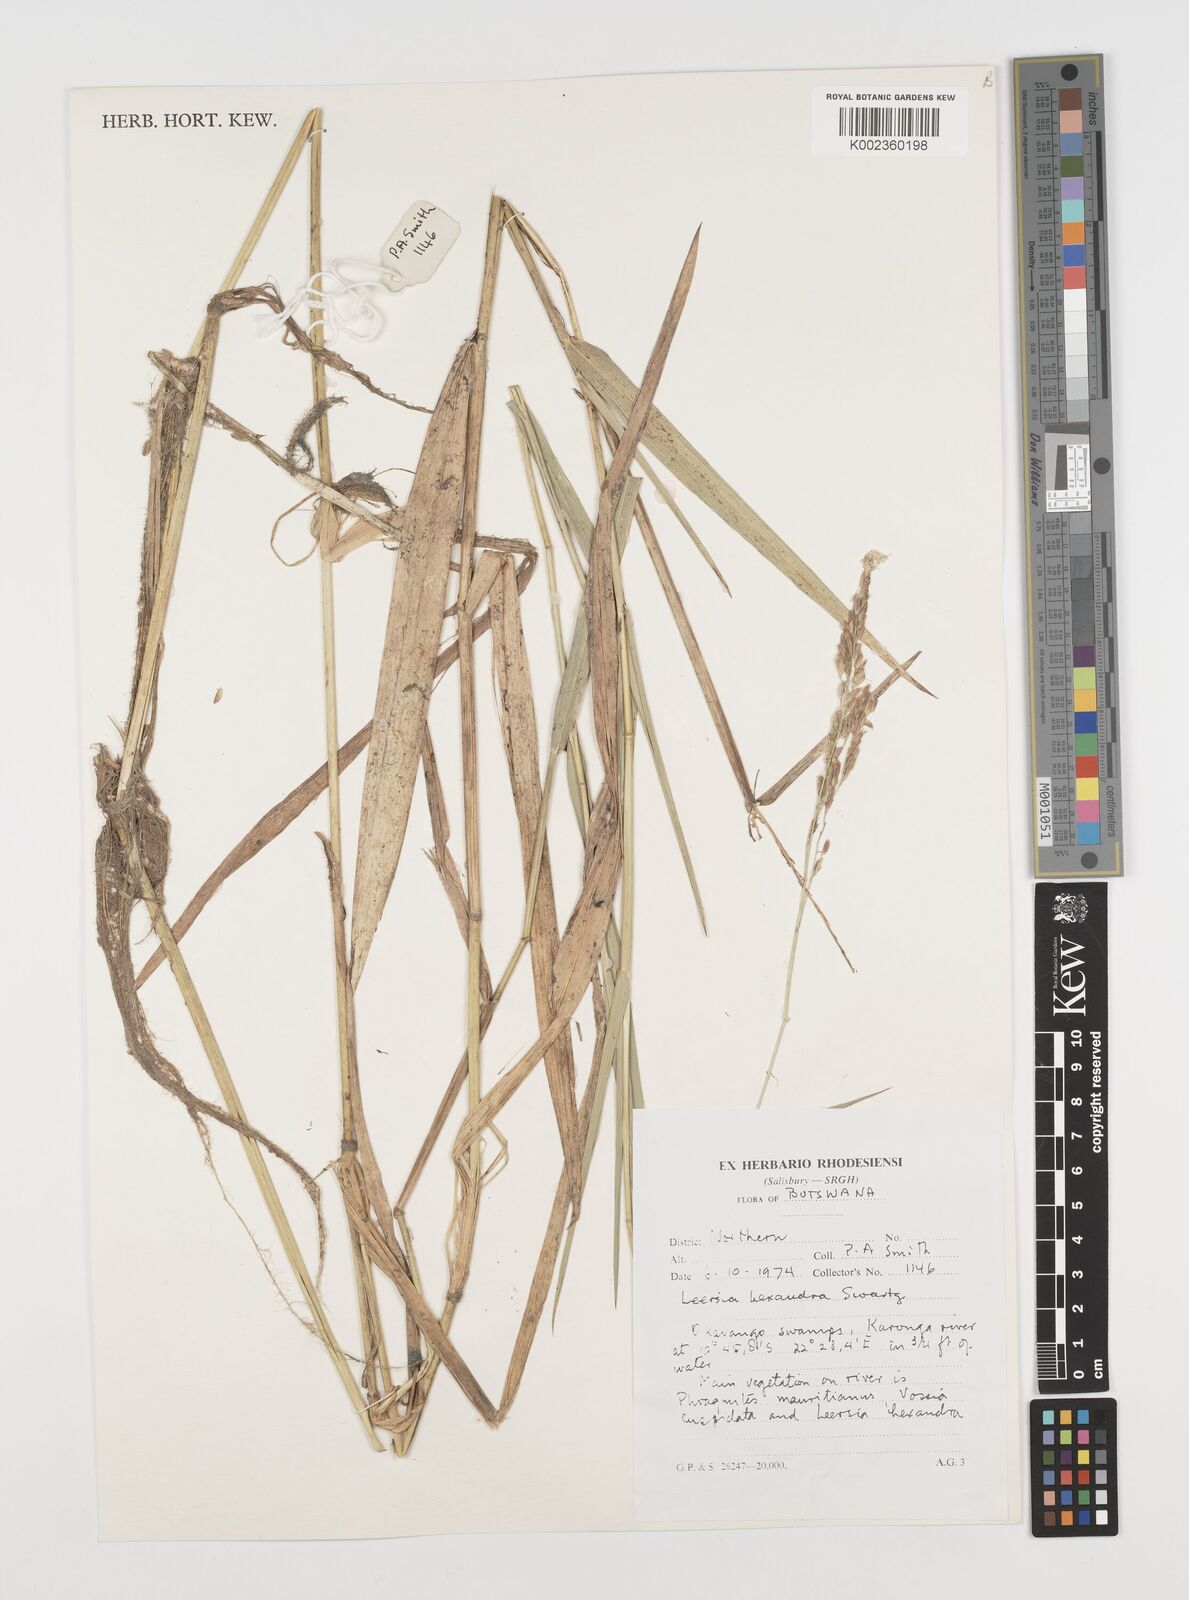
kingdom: Plantae
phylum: Tracheophyta
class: Liliopsida
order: Poales
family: Poaceae
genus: Leersia
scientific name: Leersia hexandra
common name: Southern cut grass
